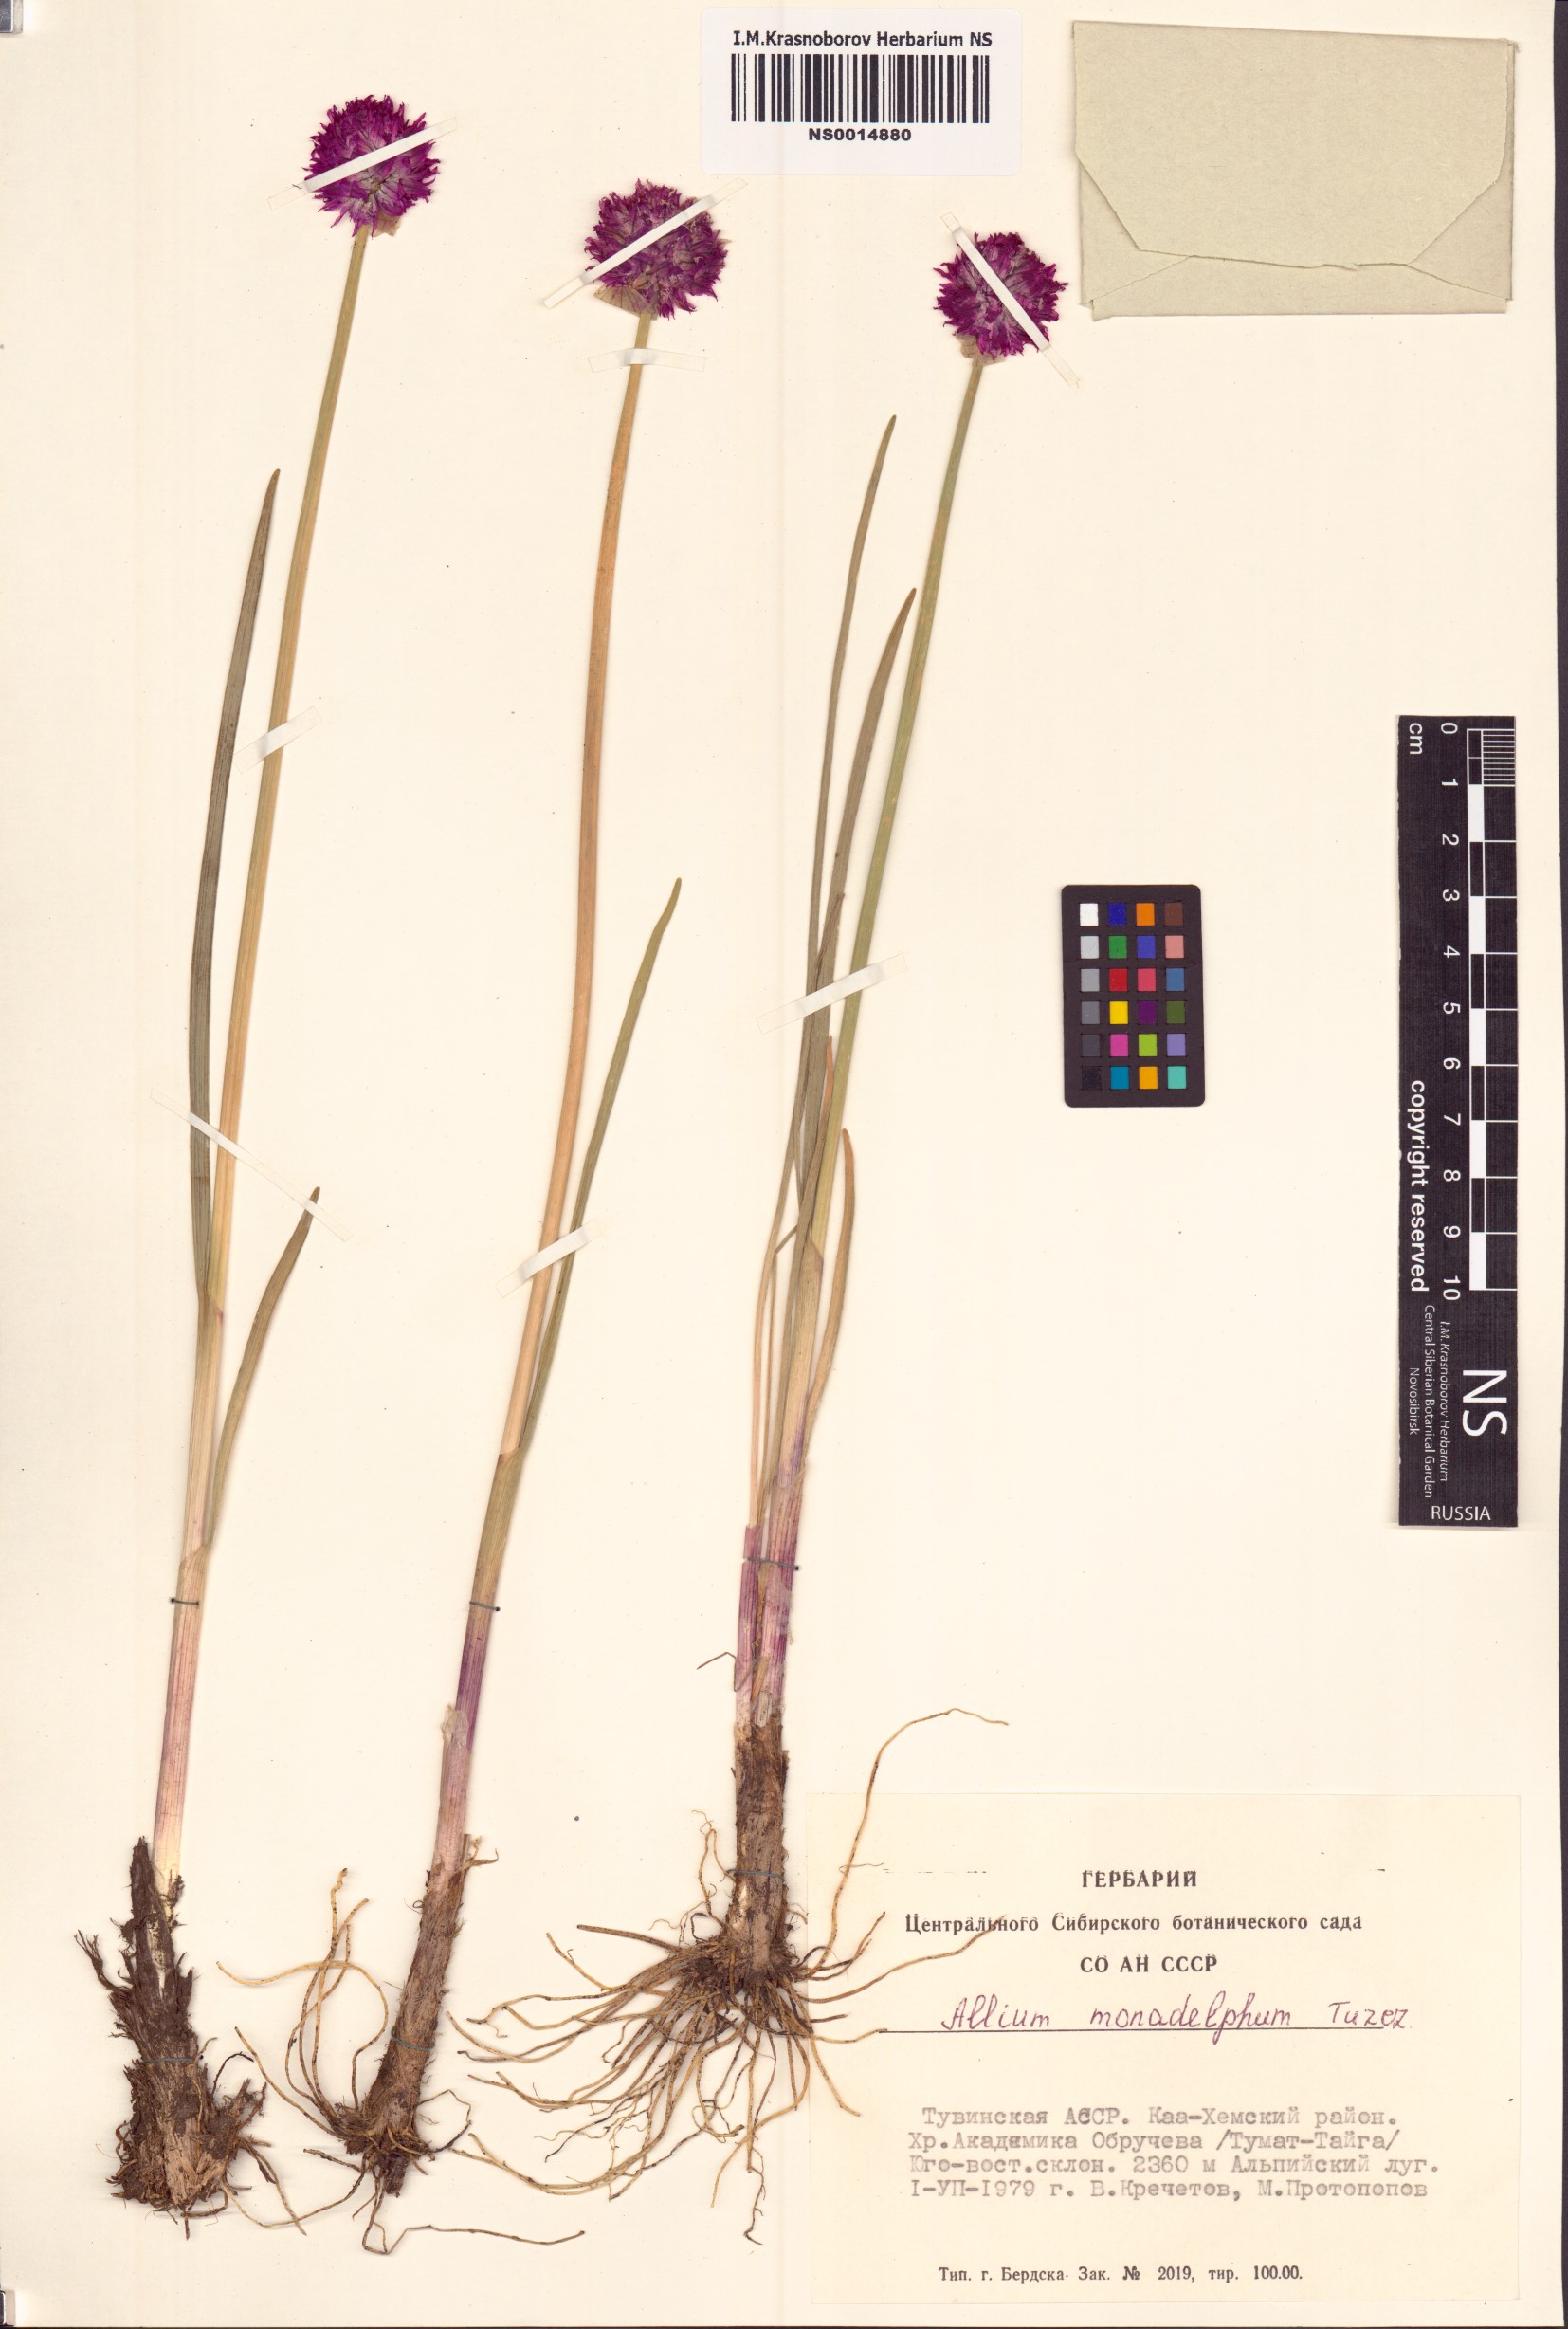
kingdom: Plantae
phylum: Tracheophyta
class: Liliopsida
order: Asparagales
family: Amaryllidaceae
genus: Allium
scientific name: Allium atrosanguineum
